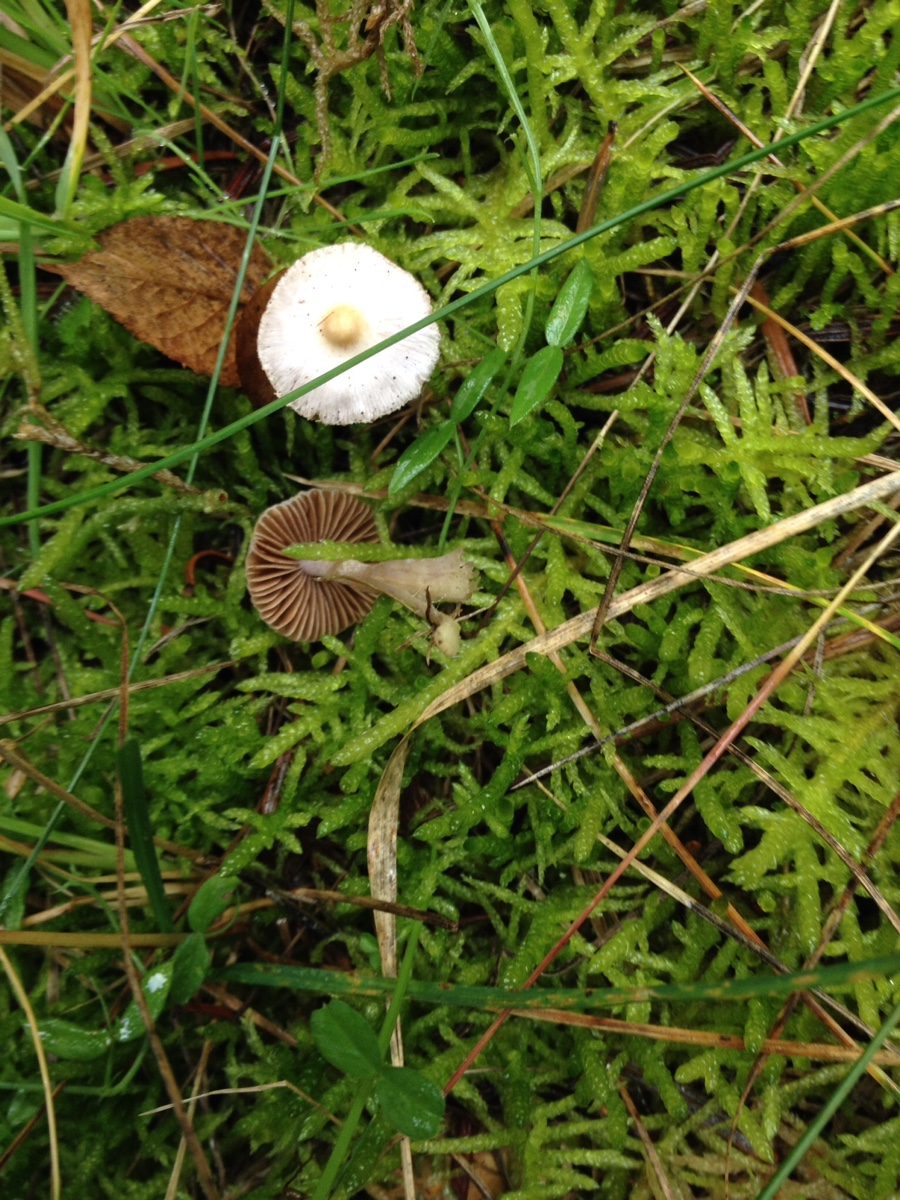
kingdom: Fungi
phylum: Basidiomycota
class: Agaricomycetes
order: Agaricales
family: Inocybaceae
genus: Inocybe
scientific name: Inocybe
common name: trævlhat
